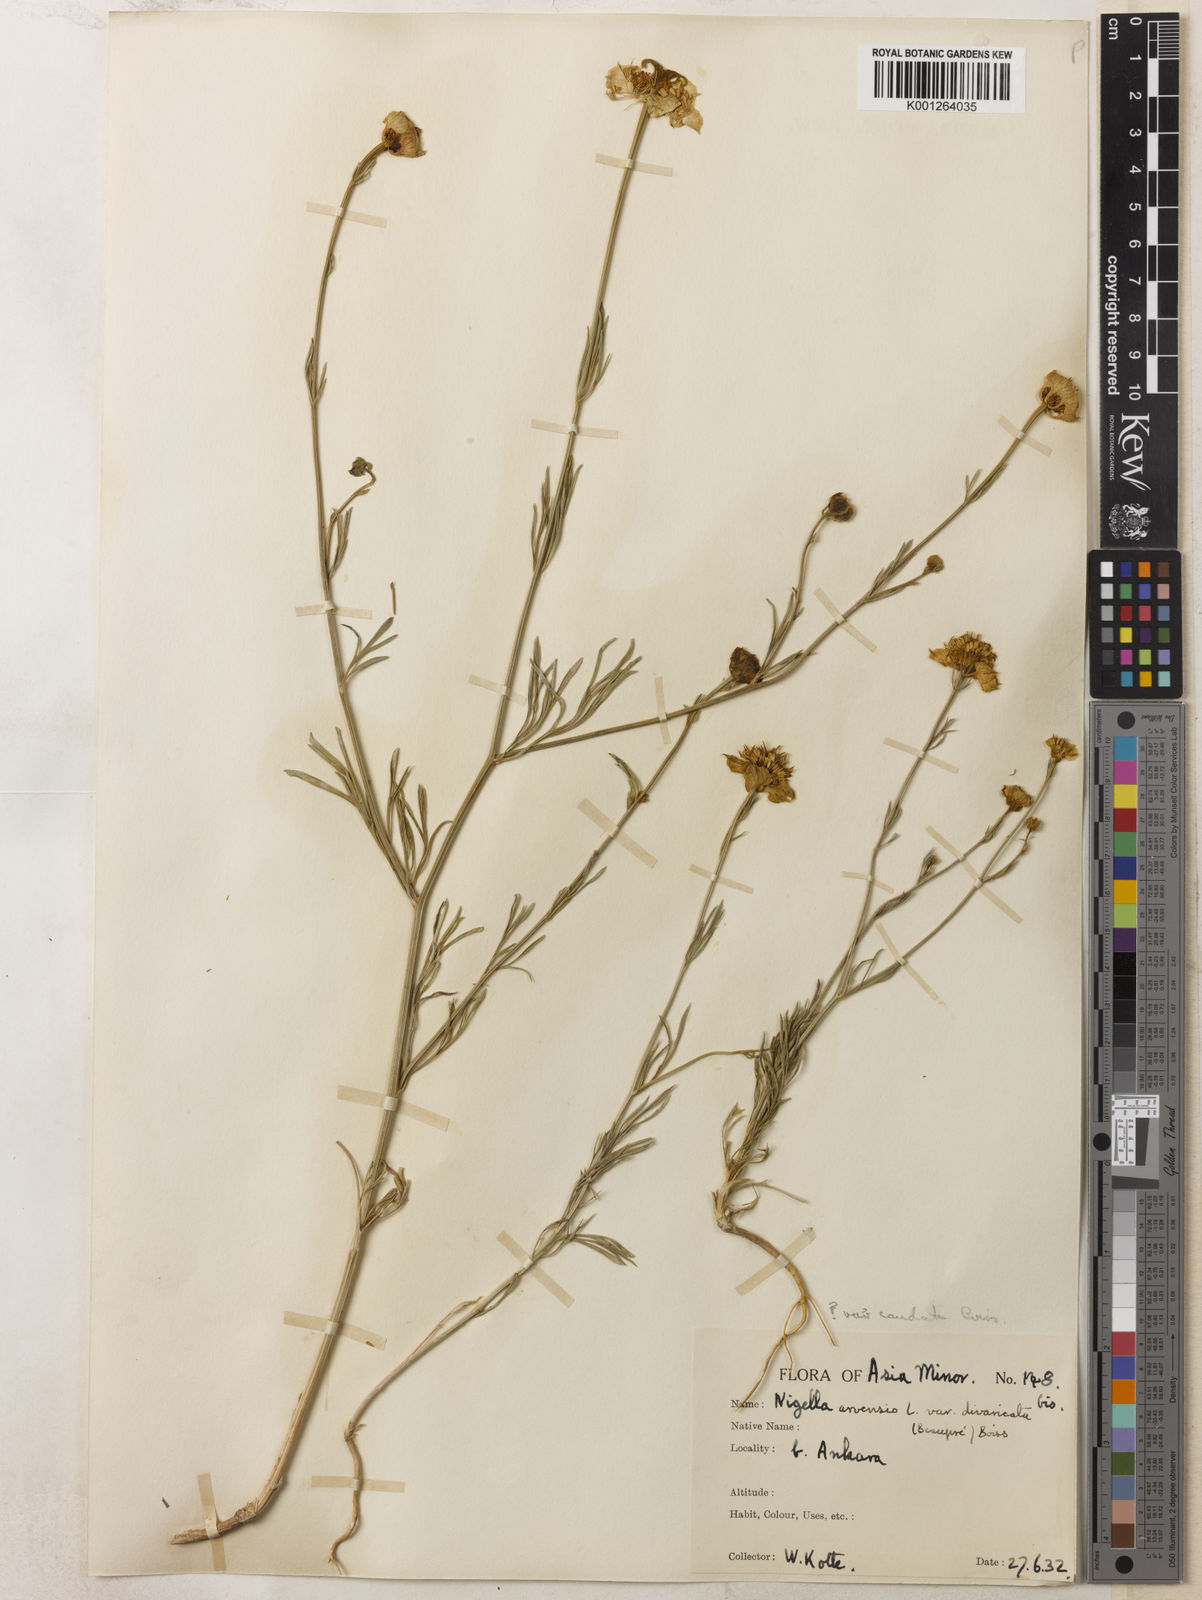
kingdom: Plantae
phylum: Tracheophyta
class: Magnoliopsida
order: Ranunculales
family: Ranunculaceae
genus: Nigella
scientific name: Nigella arvensis
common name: Wild fennel-flower
